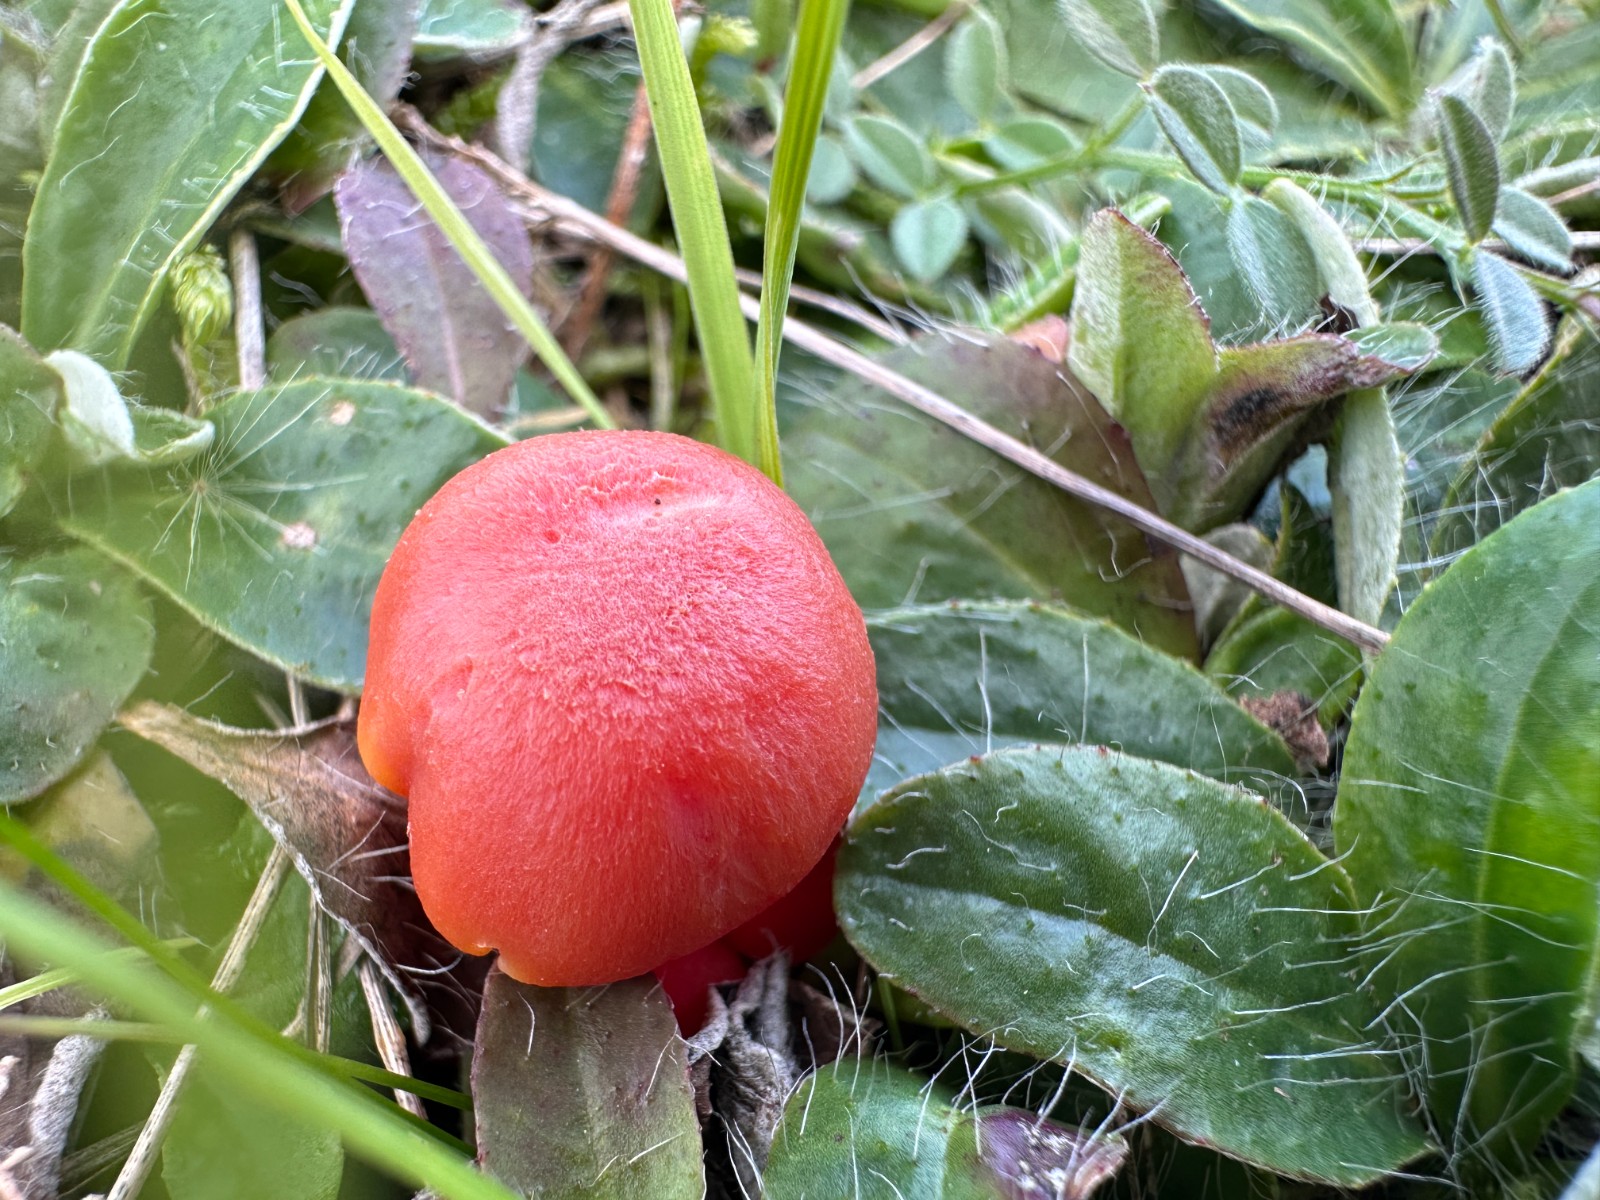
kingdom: Fungi
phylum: Basidiomycota
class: Agaricomycetes
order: Agaricales
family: Hygrophoraceae
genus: Hygrocybe
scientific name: Hygrocybe miniata
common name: mønje-vokshat
